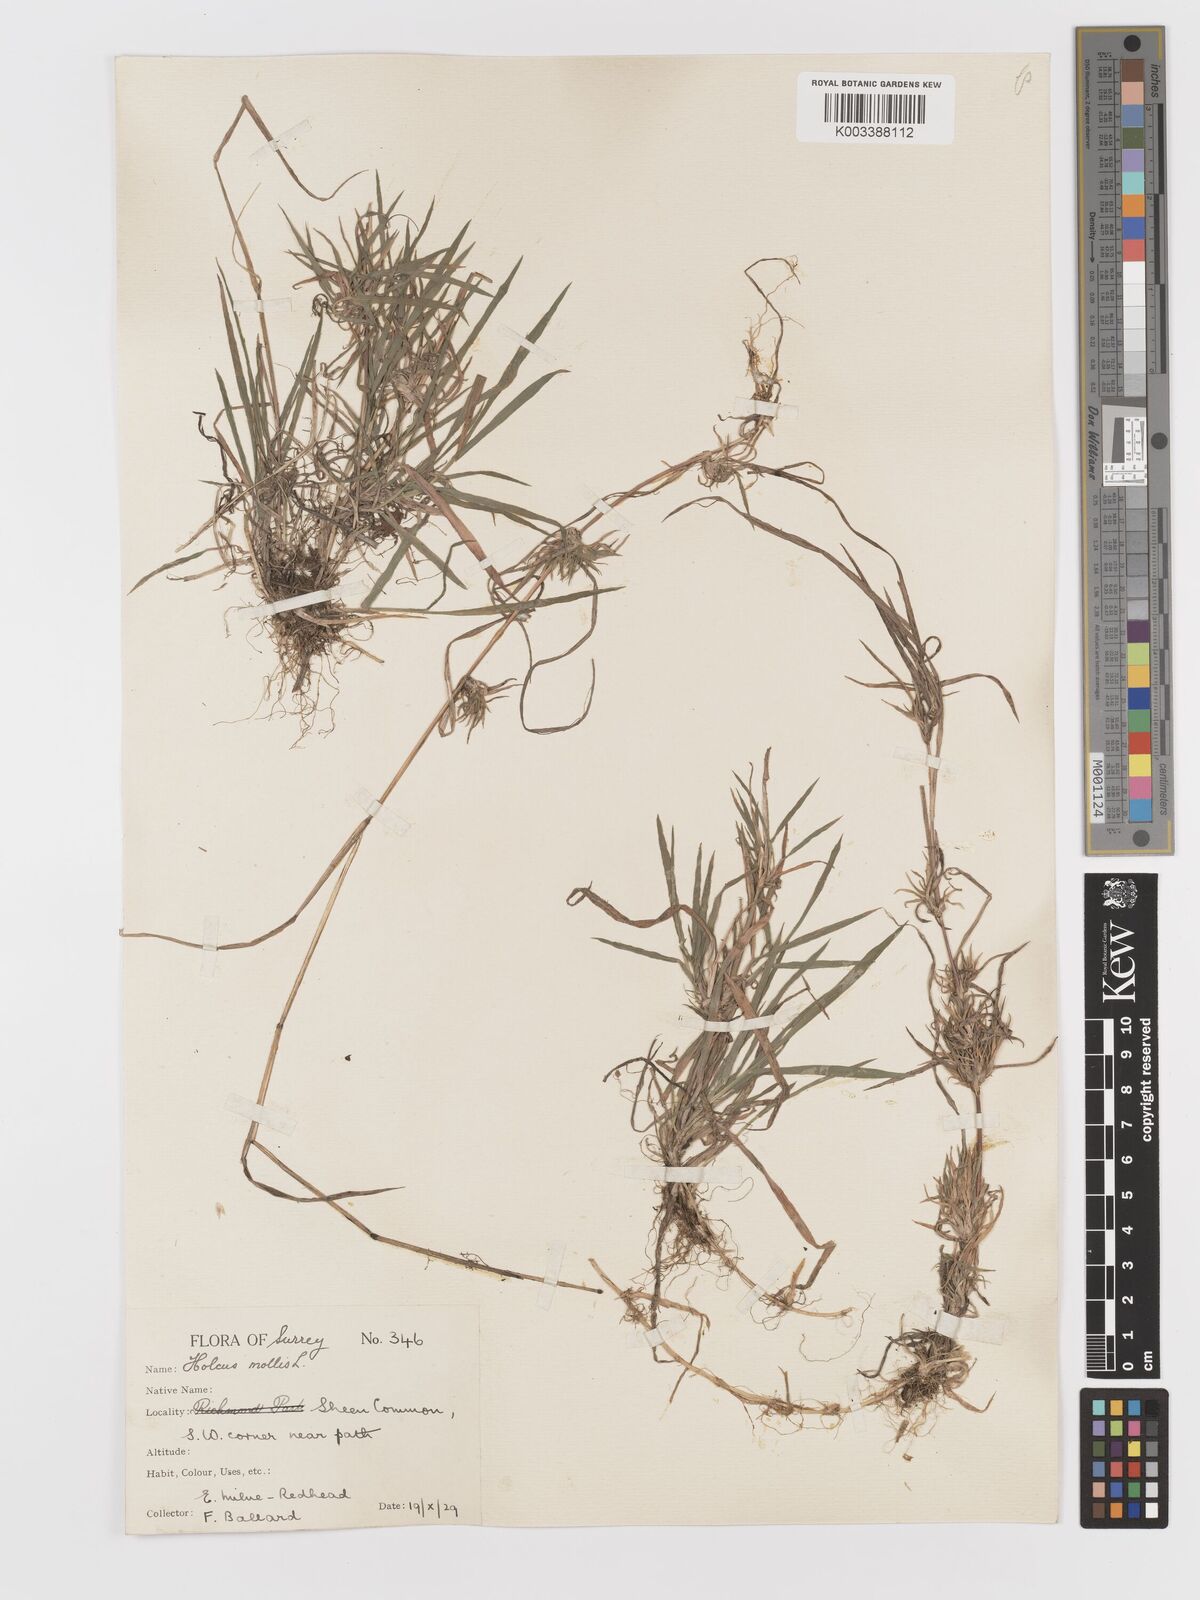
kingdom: Plantae
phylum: Tracheophyta
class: Liliopsida
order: Poales
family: Poaceae
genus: Holcus
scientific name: Holcus mollis
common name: Creeping velvetgrass
